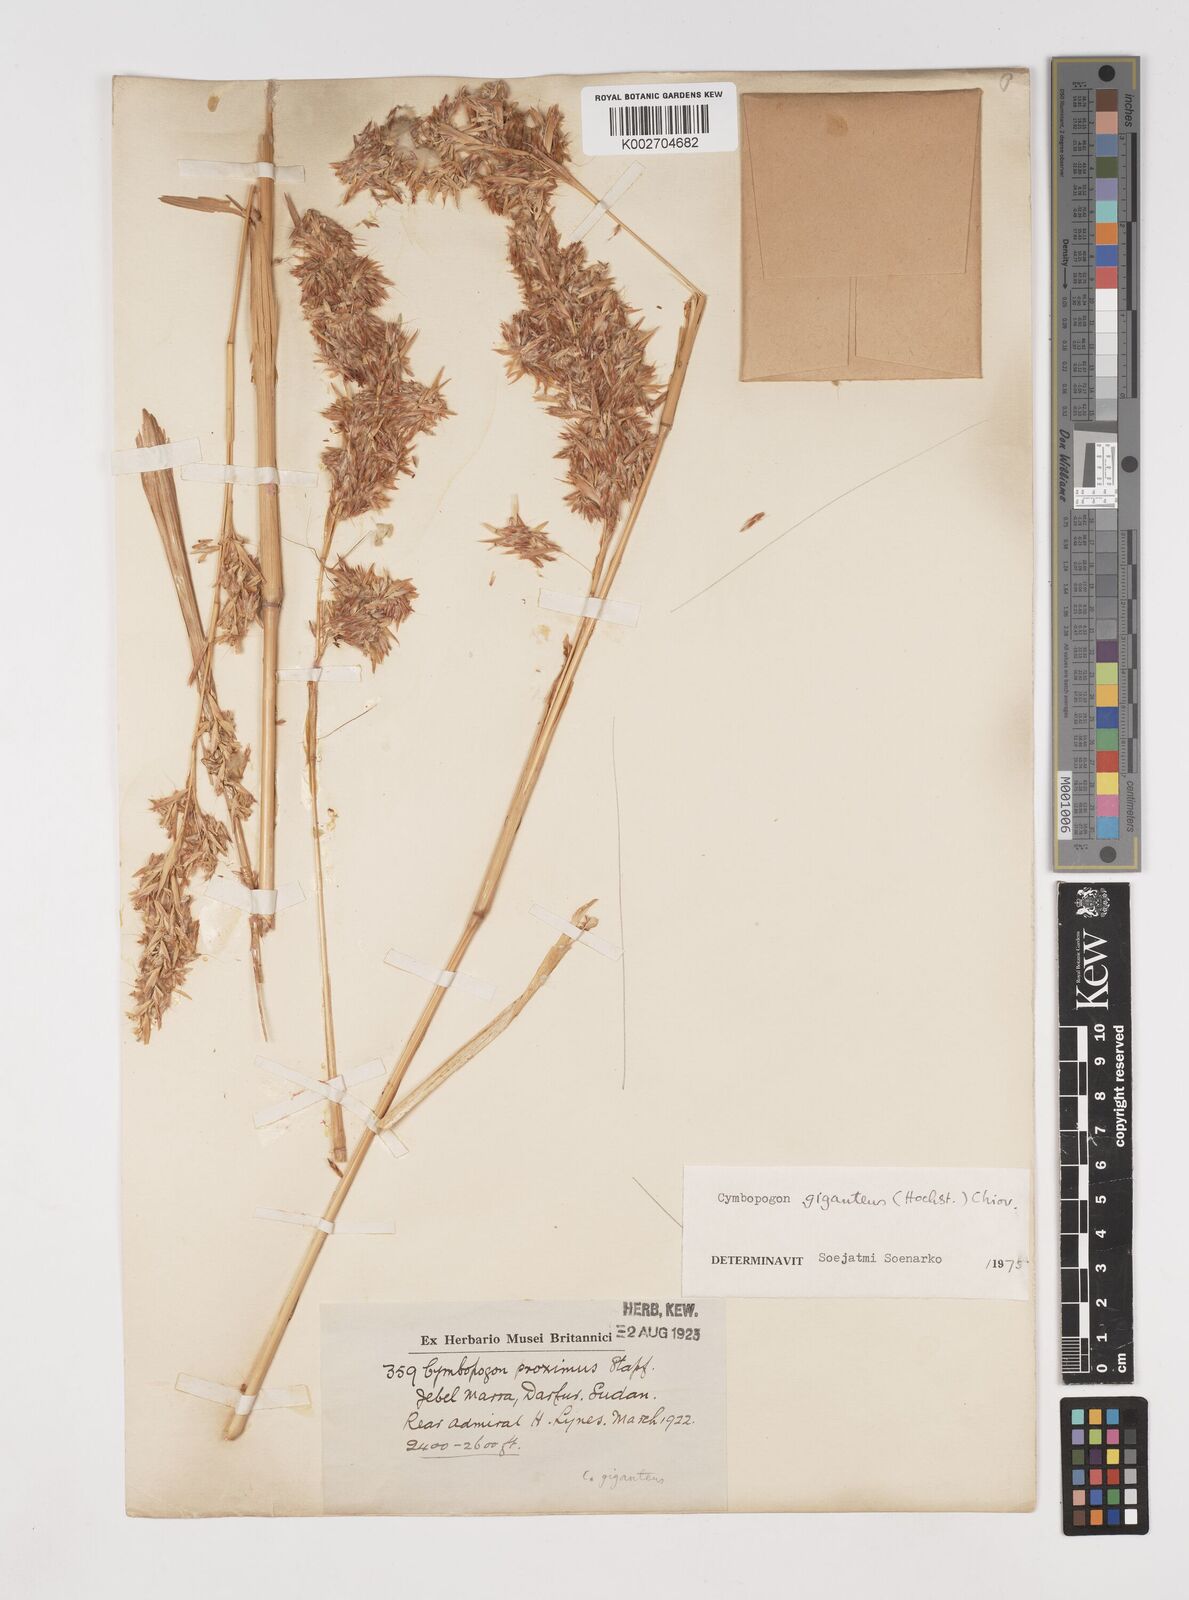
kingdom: Plantae
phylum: Tracheophyta
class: Liliopsida
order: Poales
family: Poaceae
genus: Cymbopogon
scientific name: Cymbopogon giganteus
